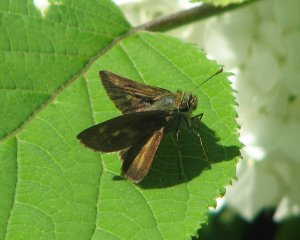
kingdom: Animalia
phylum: Arthropoda
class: Insecta
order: Lepidoptera
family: Hesperiidae
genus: Polites
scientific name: Polites coras
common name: Peck's Skipper
